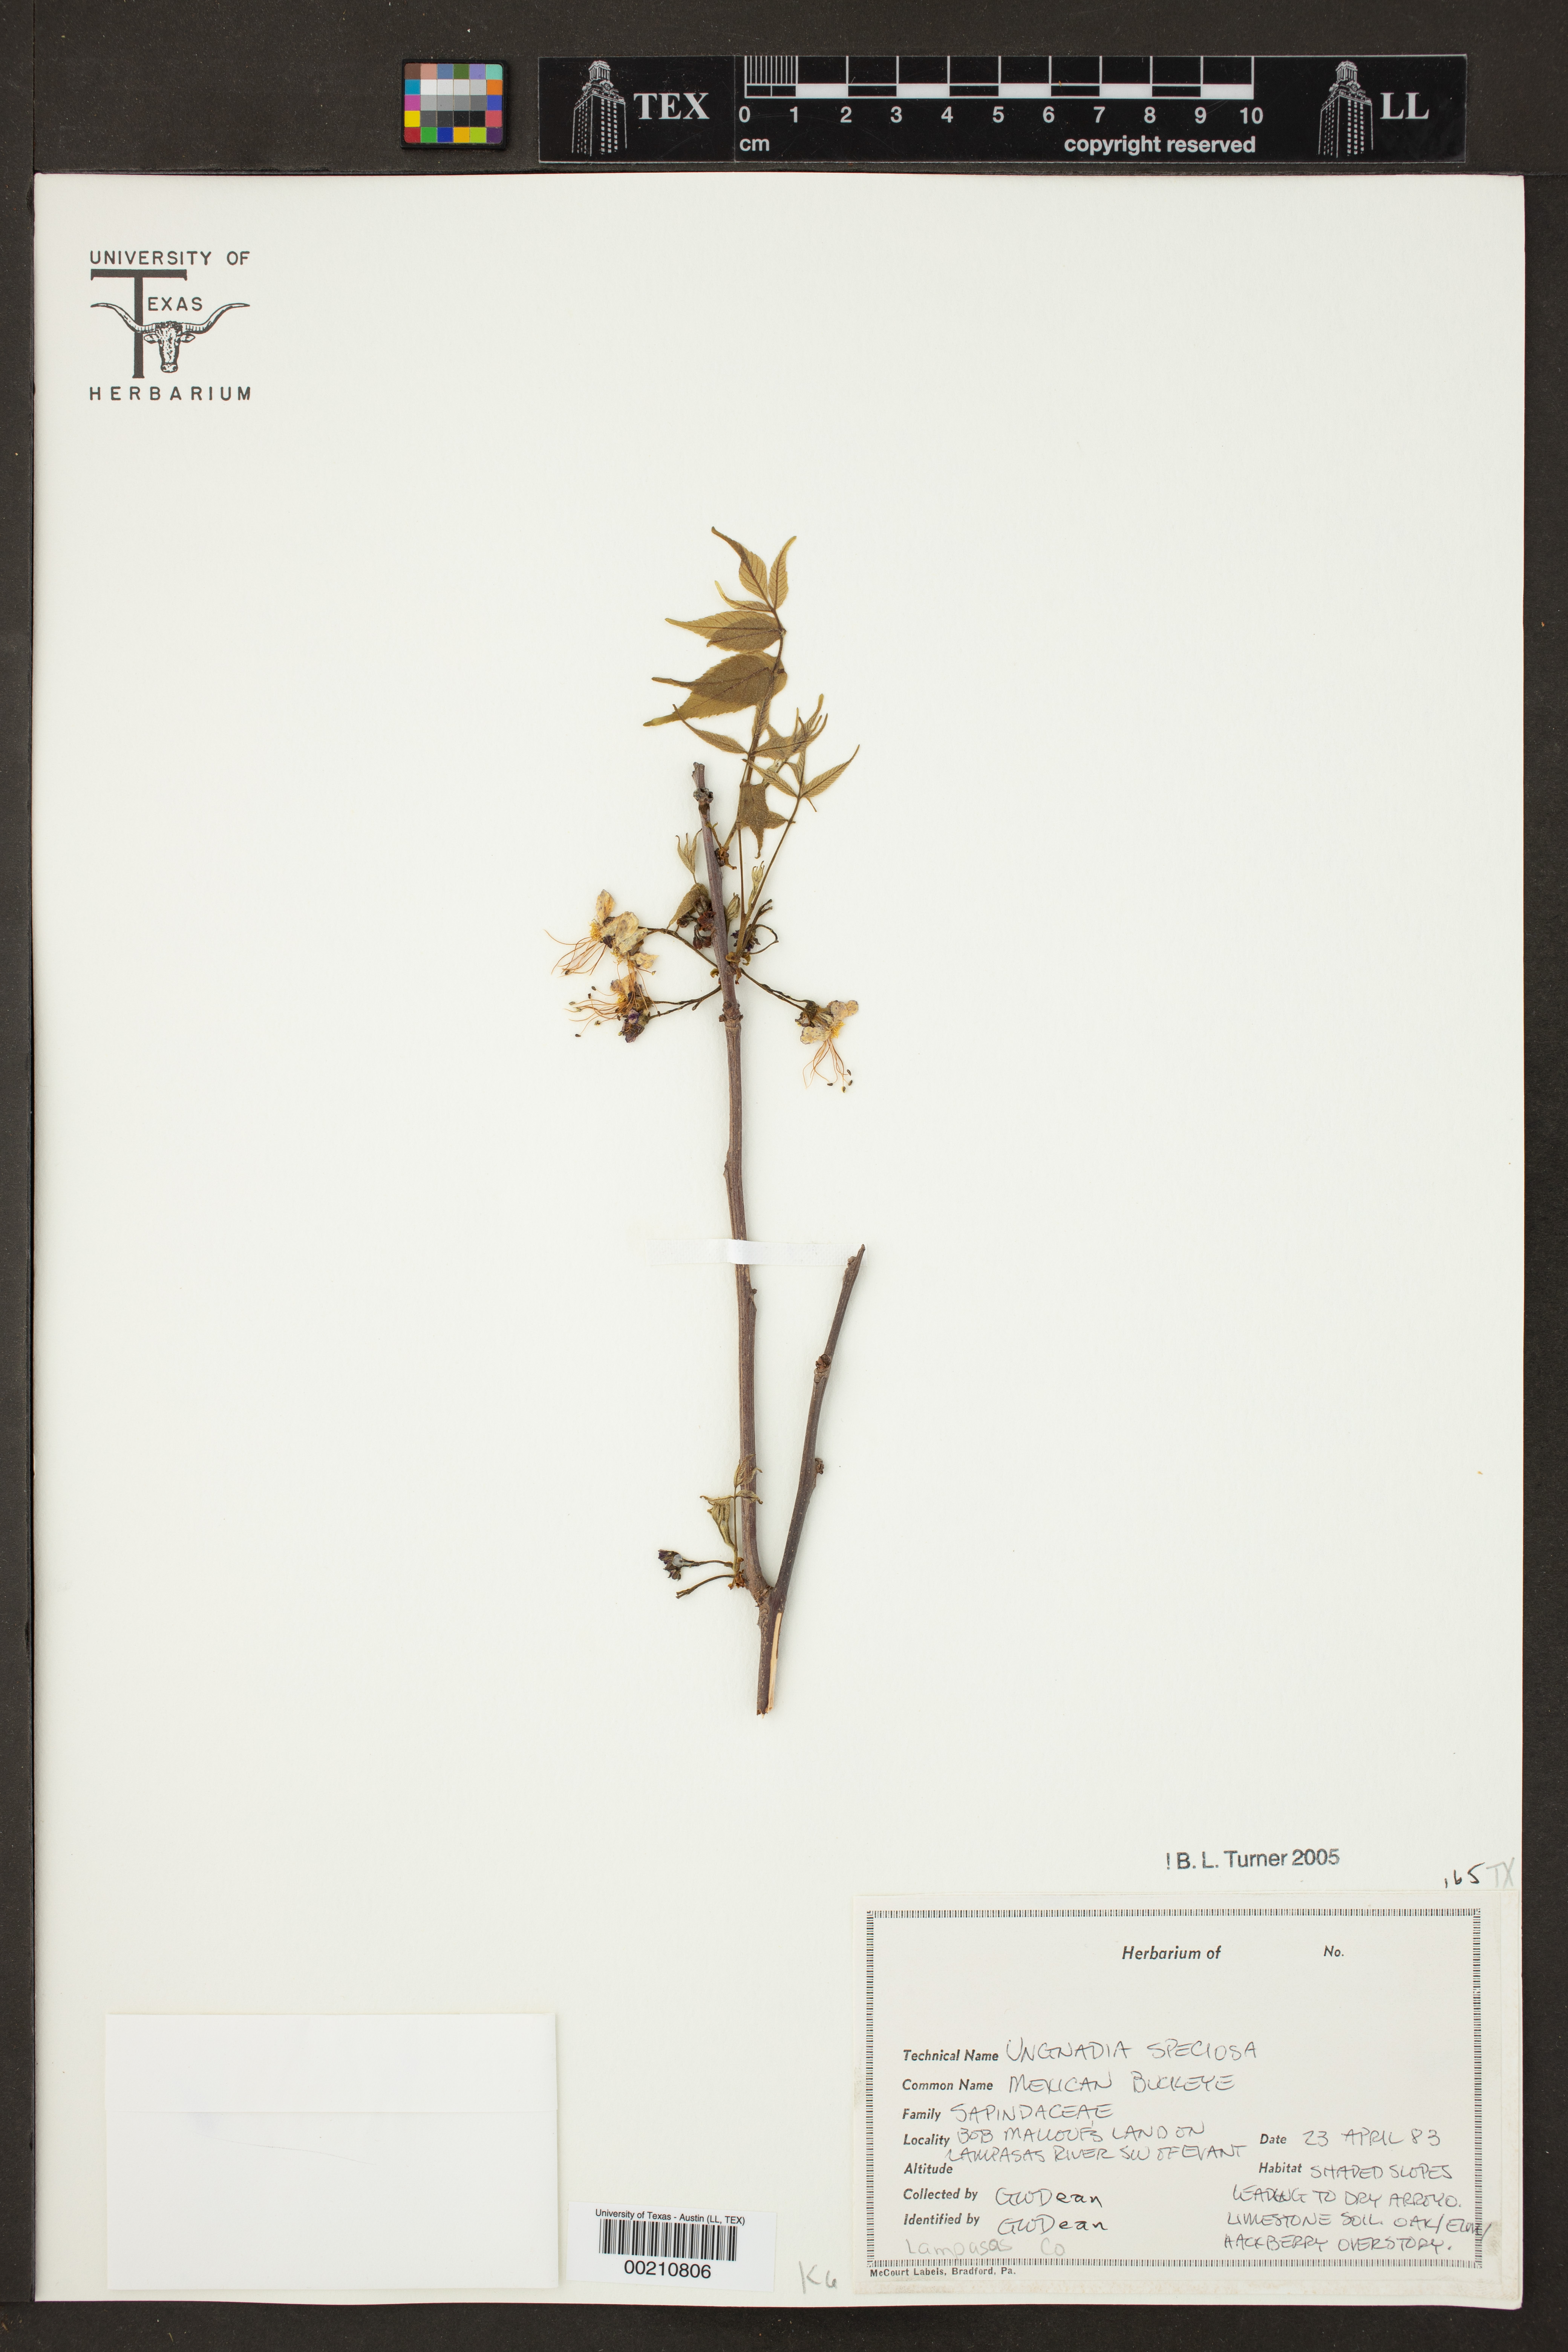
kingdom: Plantae
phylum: Tracheophyta
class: Magnoliopsida
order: Sapindales
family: Sapindaceae
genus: Ungnadia
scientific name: Ungnadia speciosa
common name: Texas-buckeye
